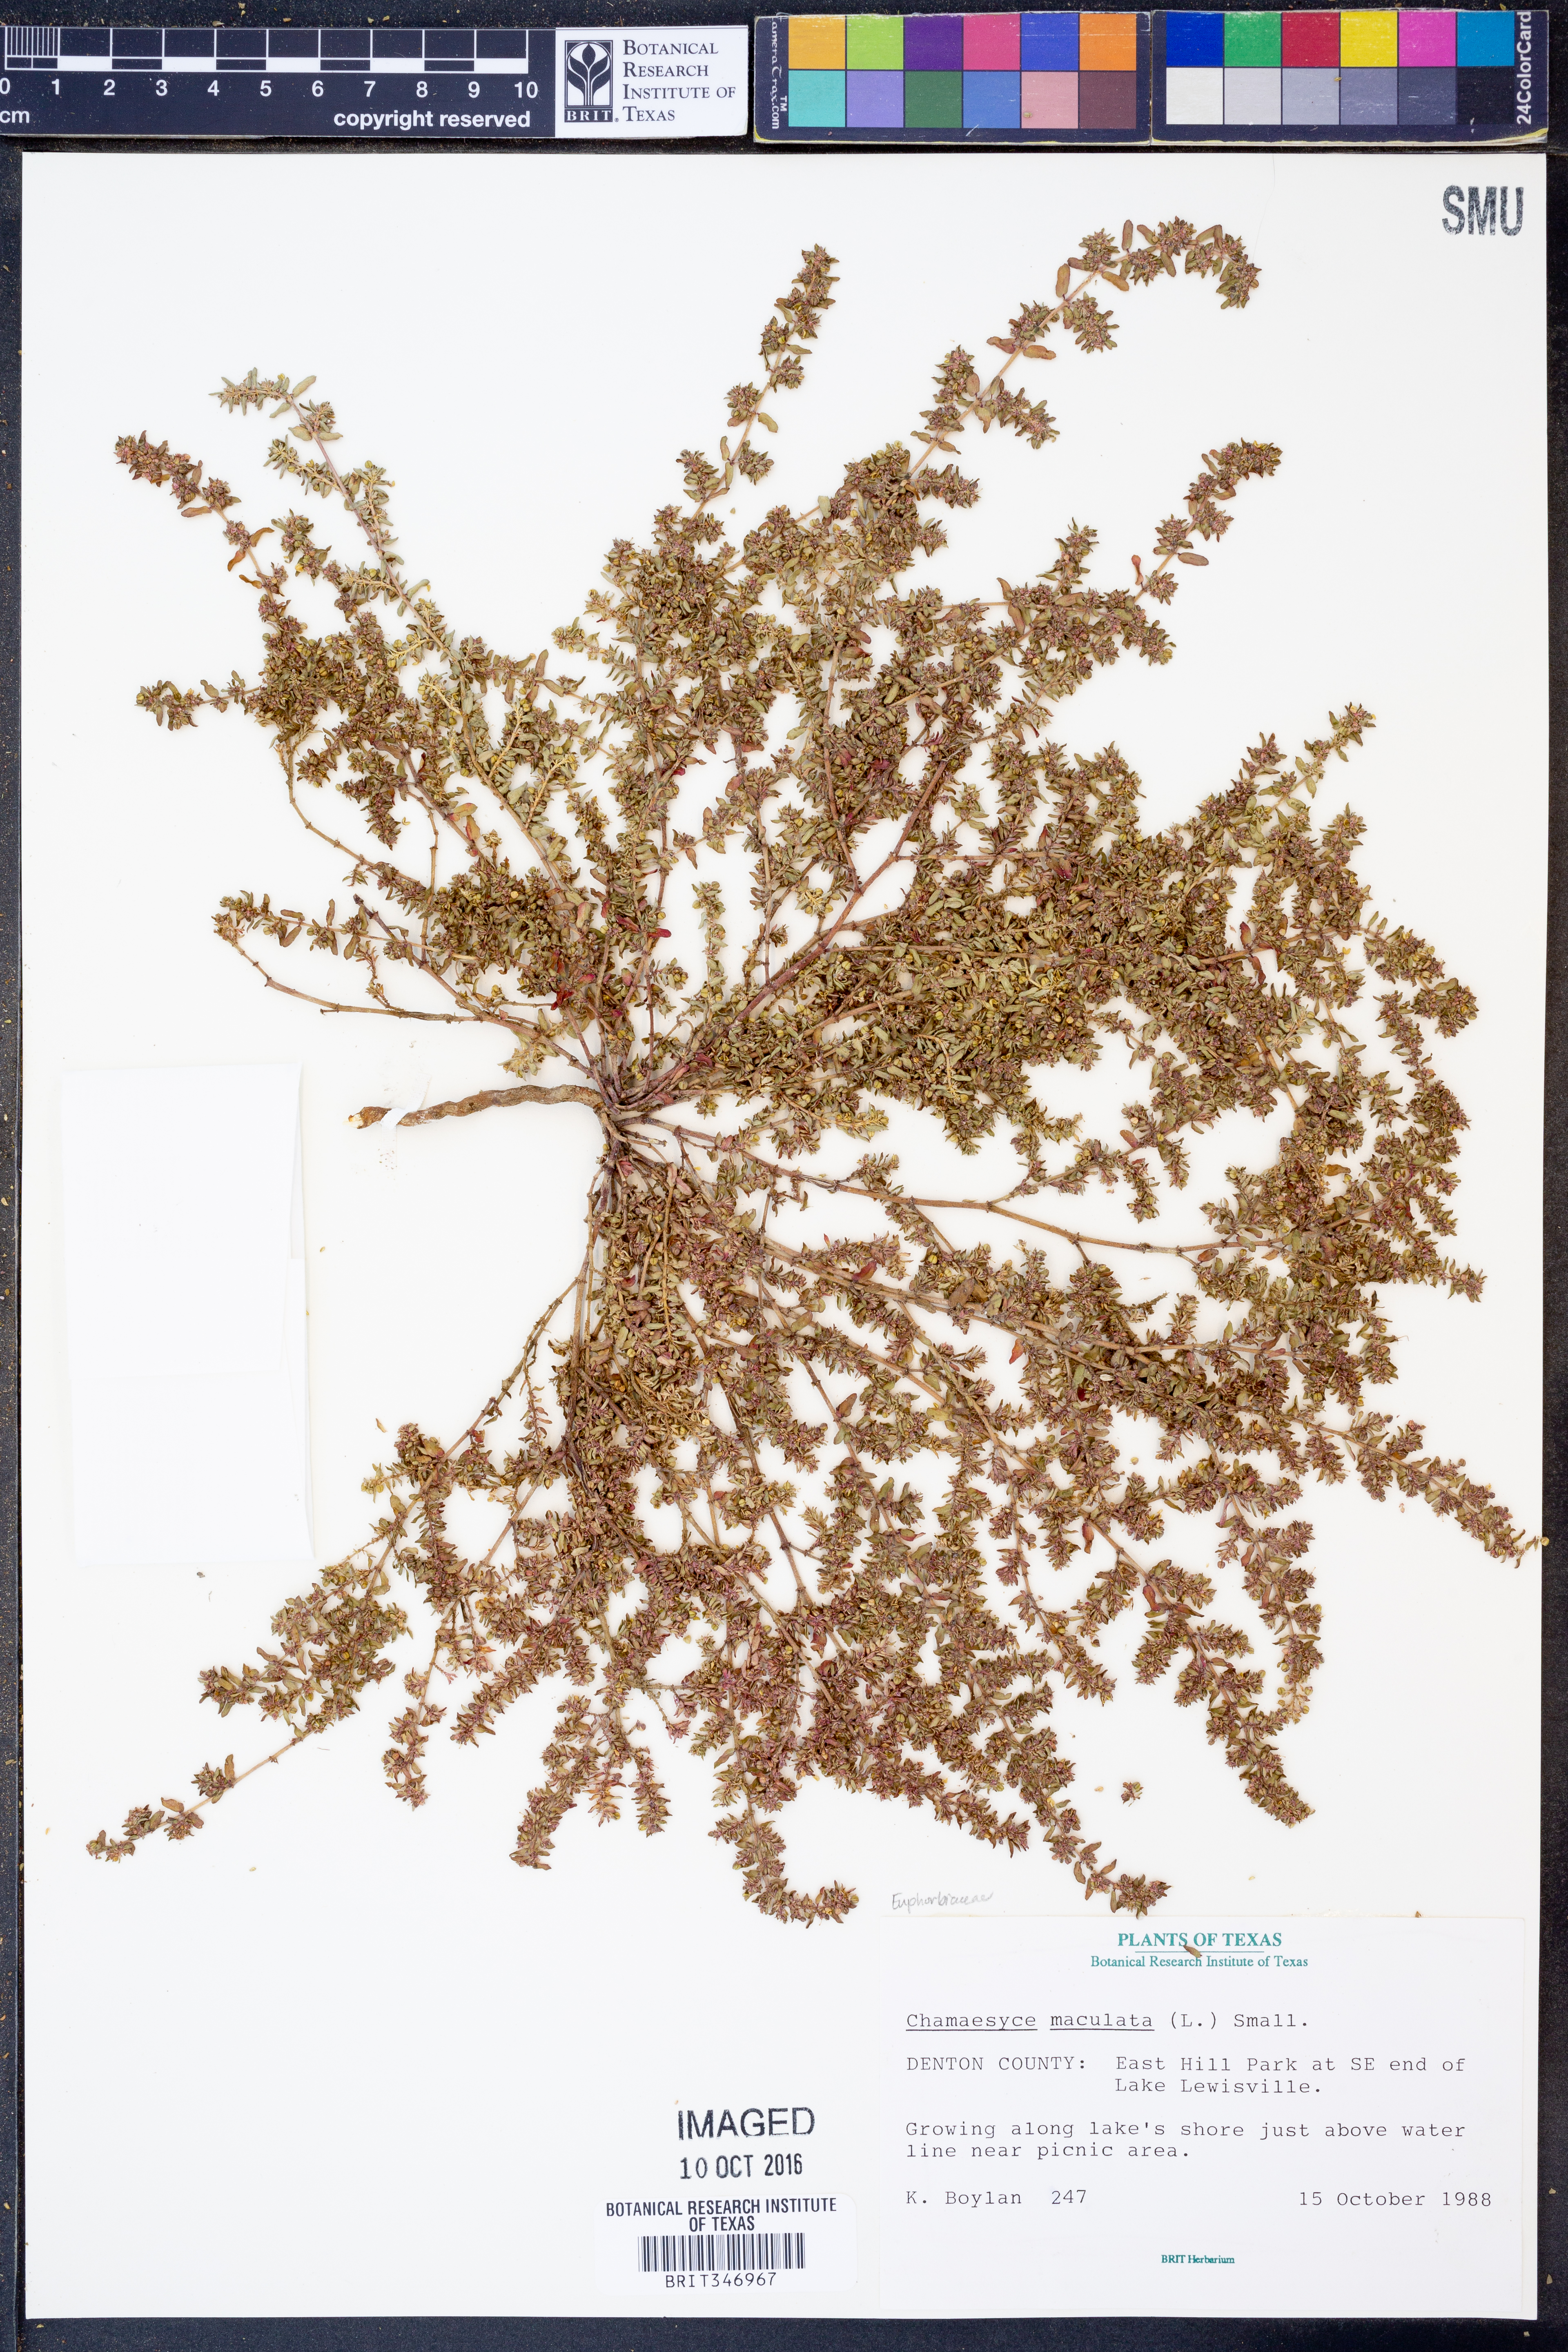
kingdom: Plantae
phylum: Tracheophyta
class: Magnoliopsida
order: Malpighiales
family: Euphorbiaceae
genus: Euphorbia
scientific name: Euphorbia maculata
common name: Spotted spurge
